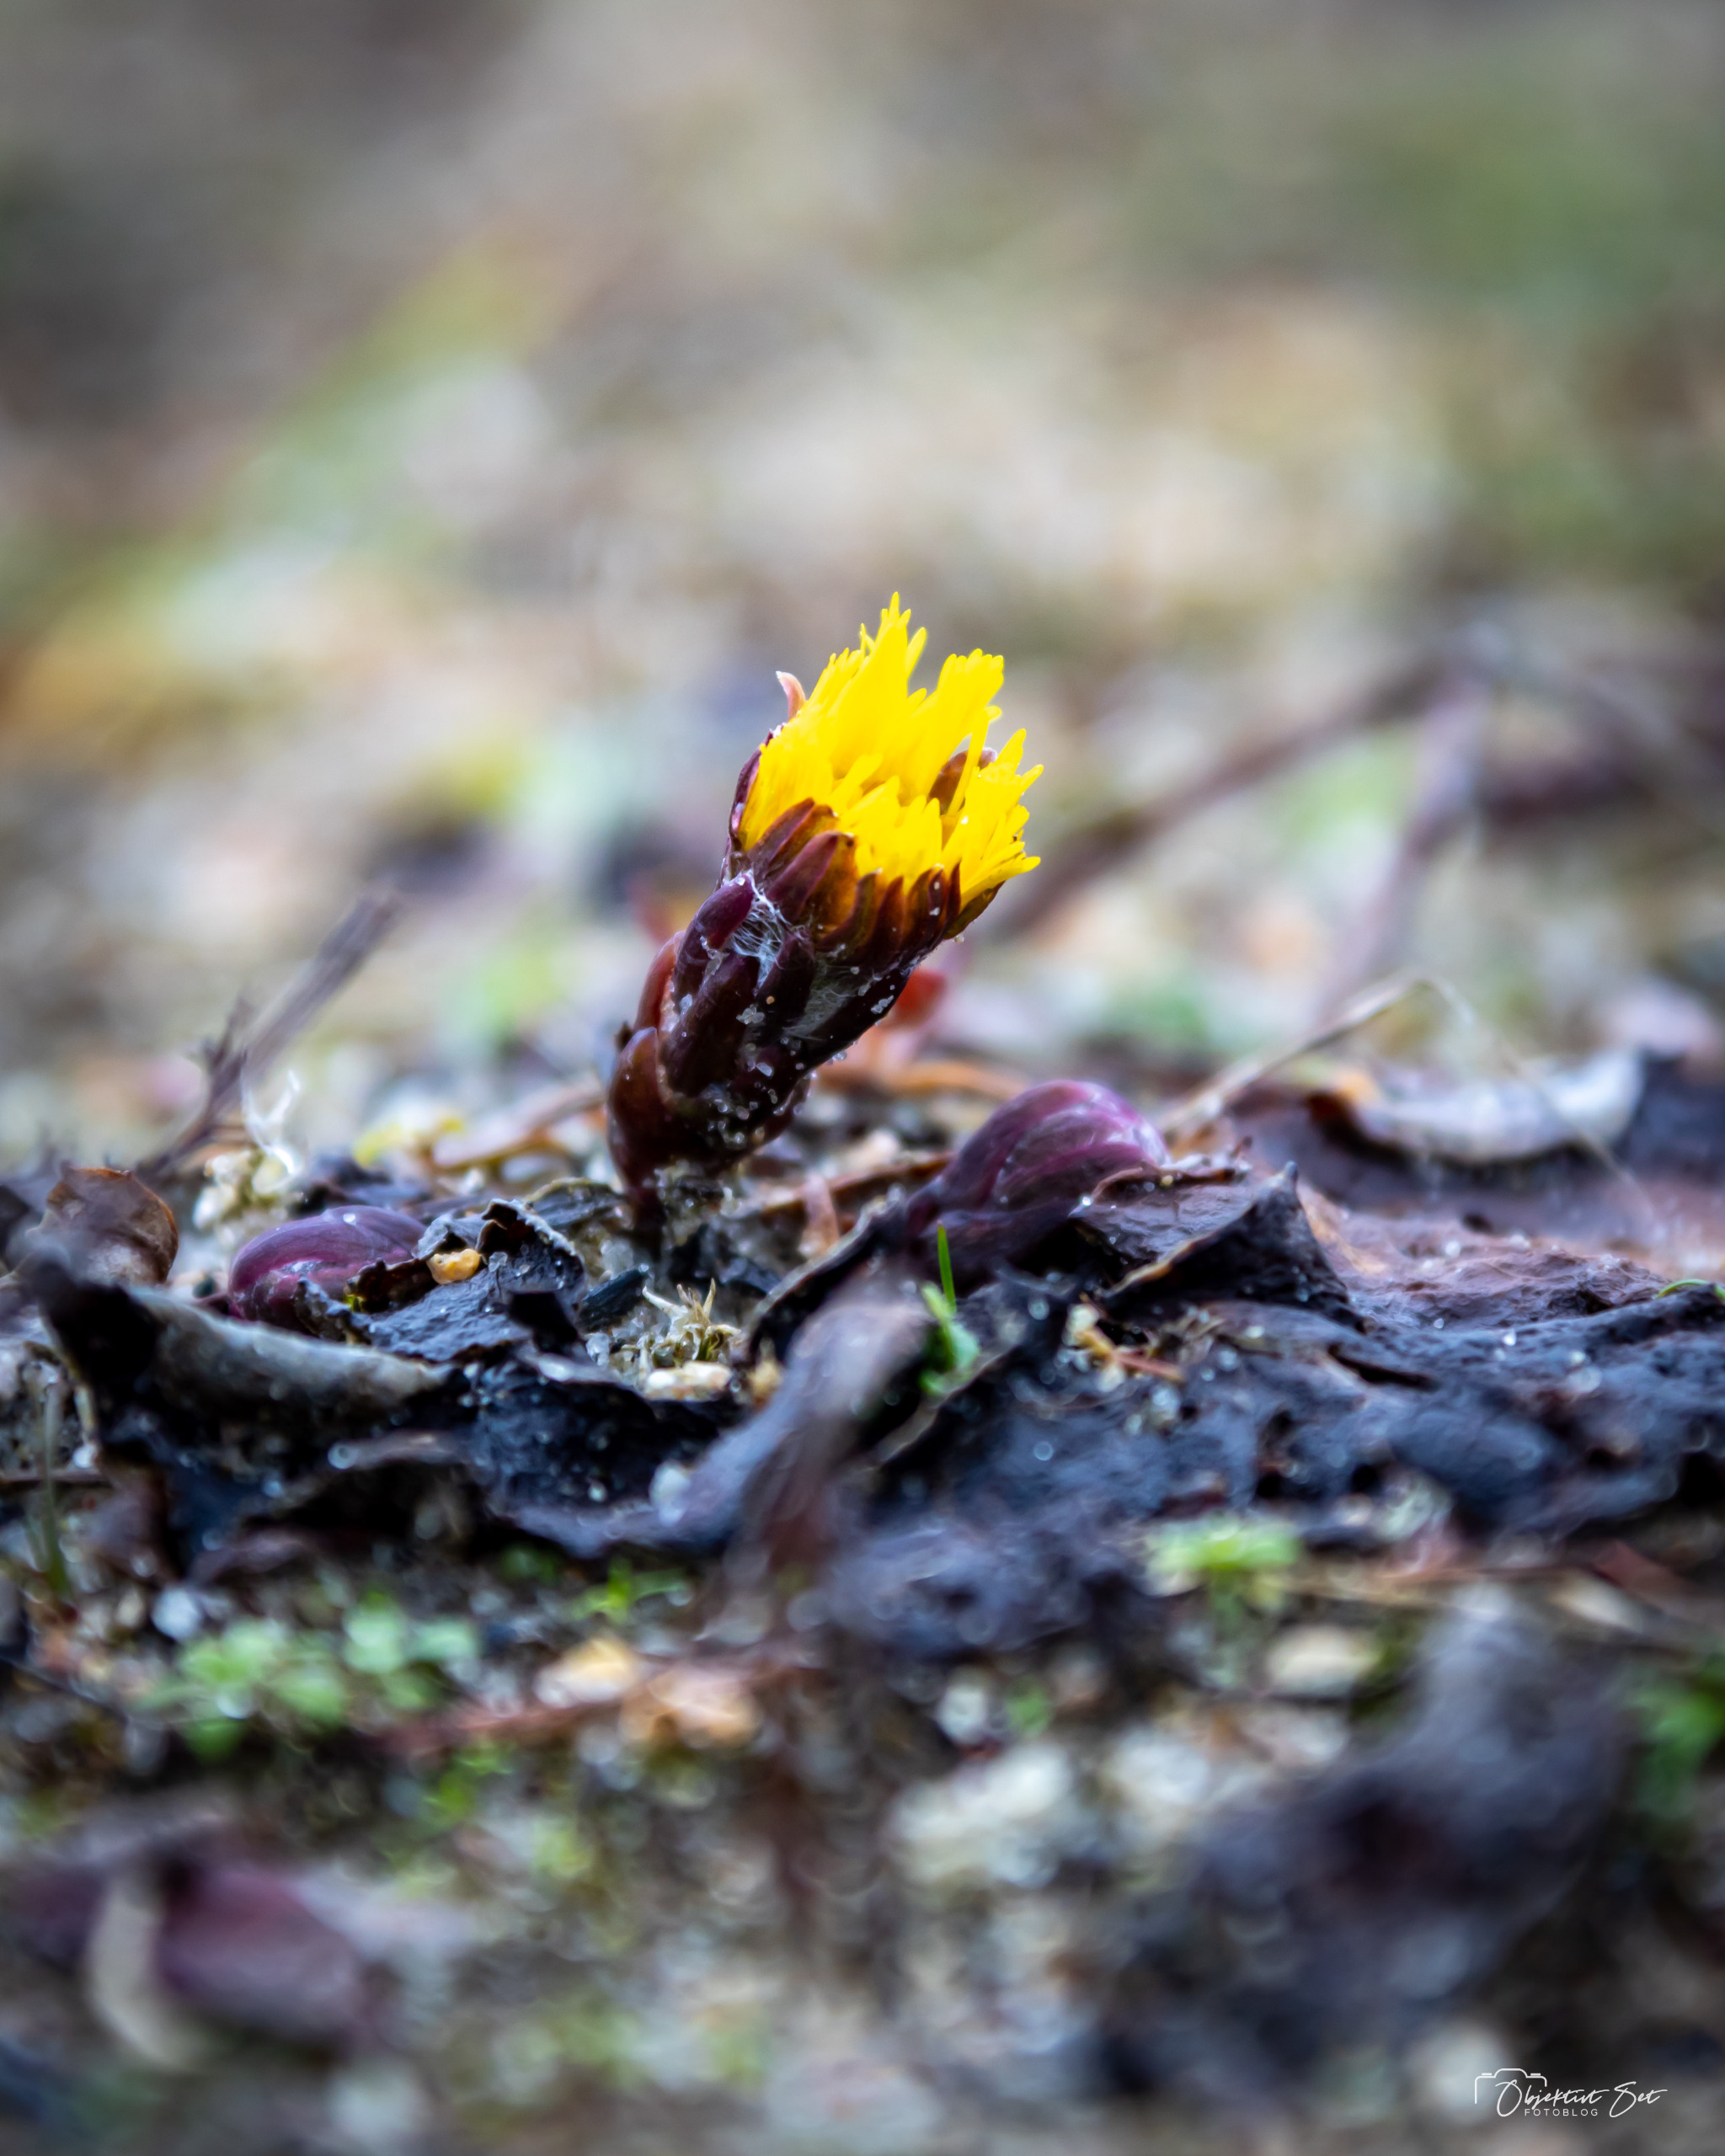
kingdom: Plantae
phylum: Tracheophyta
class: Magnoliopsida
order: Asterales
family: Asteraceae
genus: Tussilago
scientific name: Tussilago farfara
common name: Følfod
